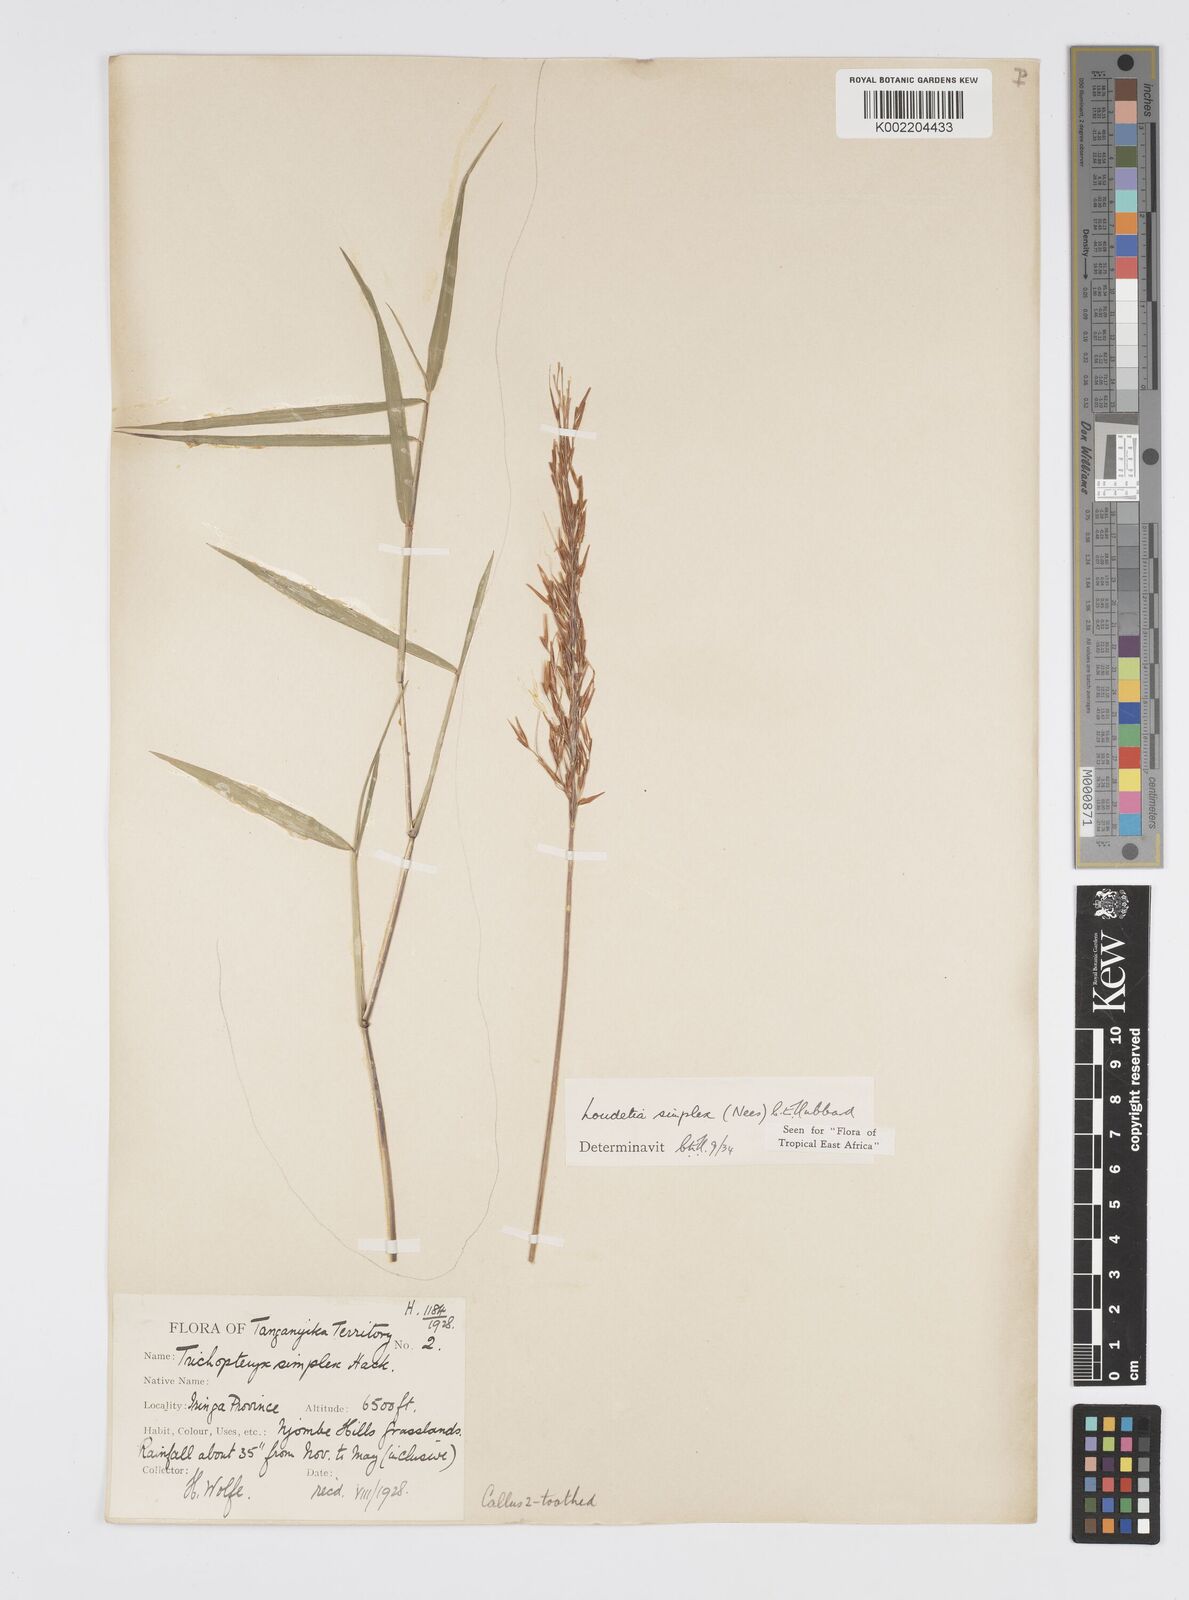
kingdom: Plantae
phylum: Tracheophyta
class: Liliopsida
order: Poales
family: Poaceae
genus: Loudetia
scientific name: Loudetia simplex
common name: Common russet grass
